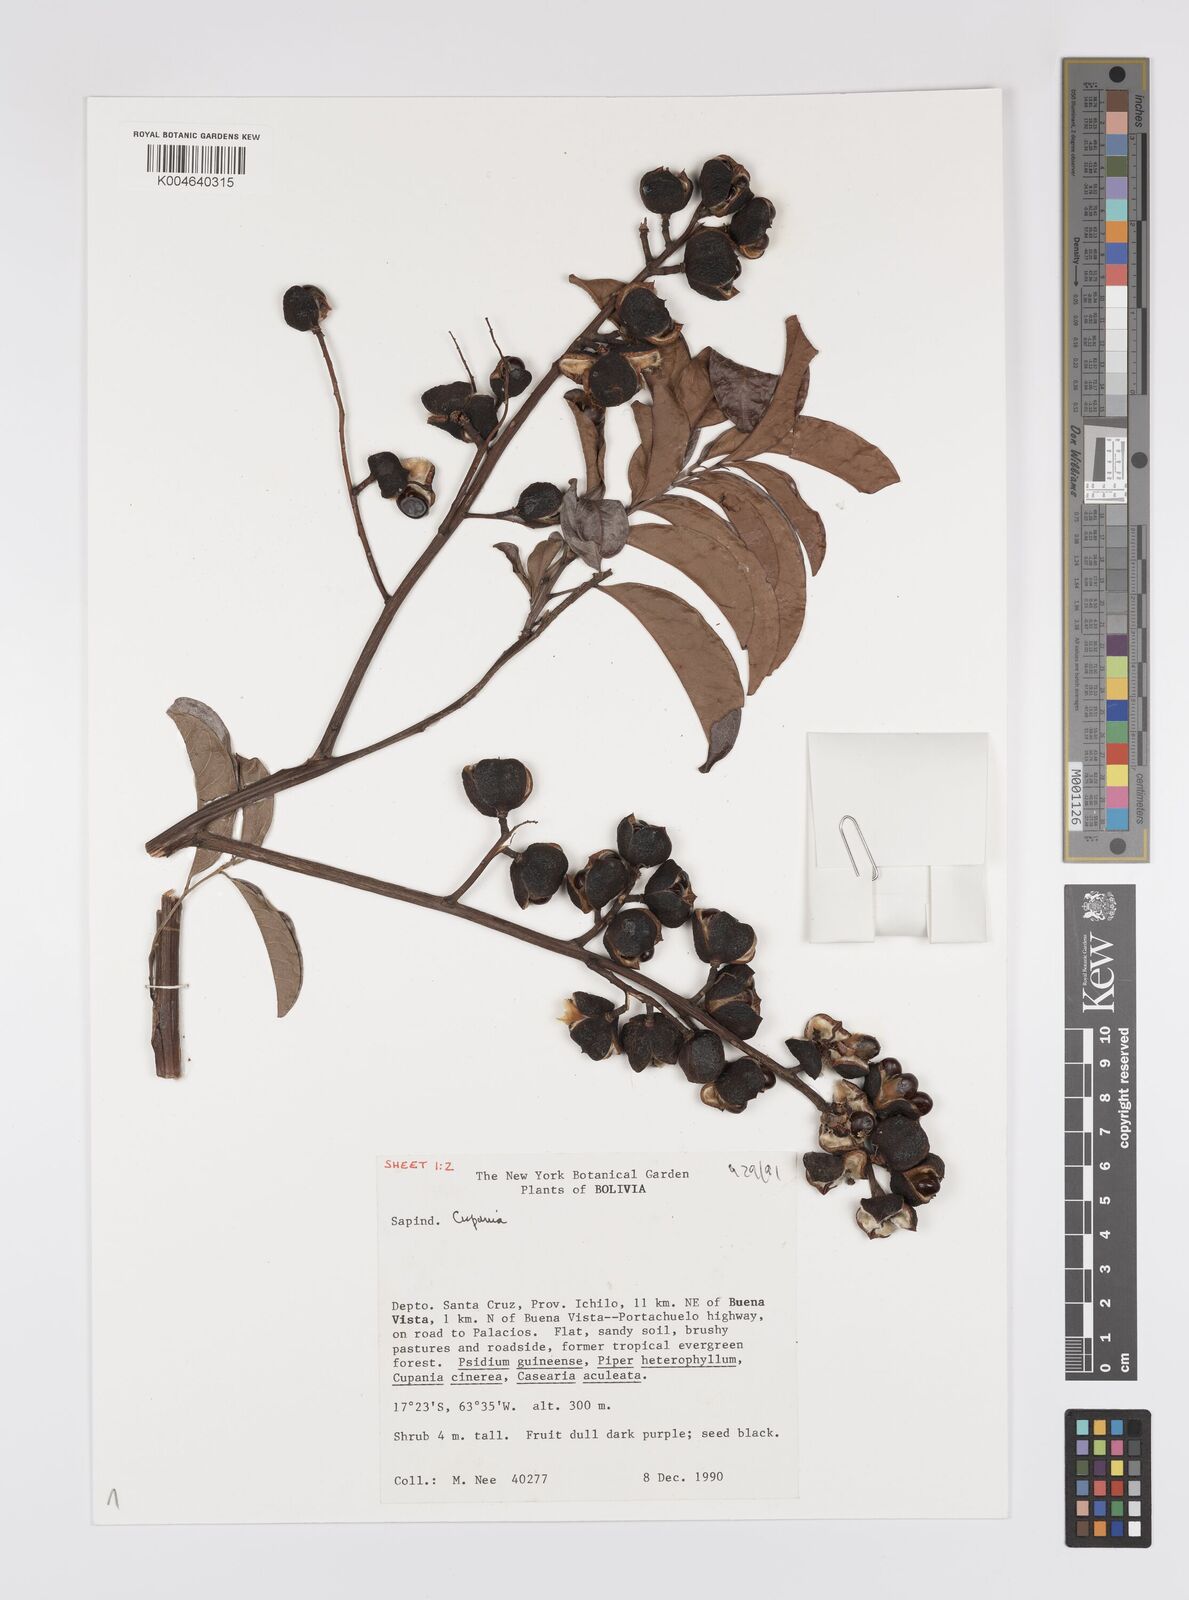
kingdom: Plantae
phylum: Tracheophyta
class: Magnoliopsida
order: Sapindales
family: Sapindaceae
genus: Cupania
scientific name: Cupania
